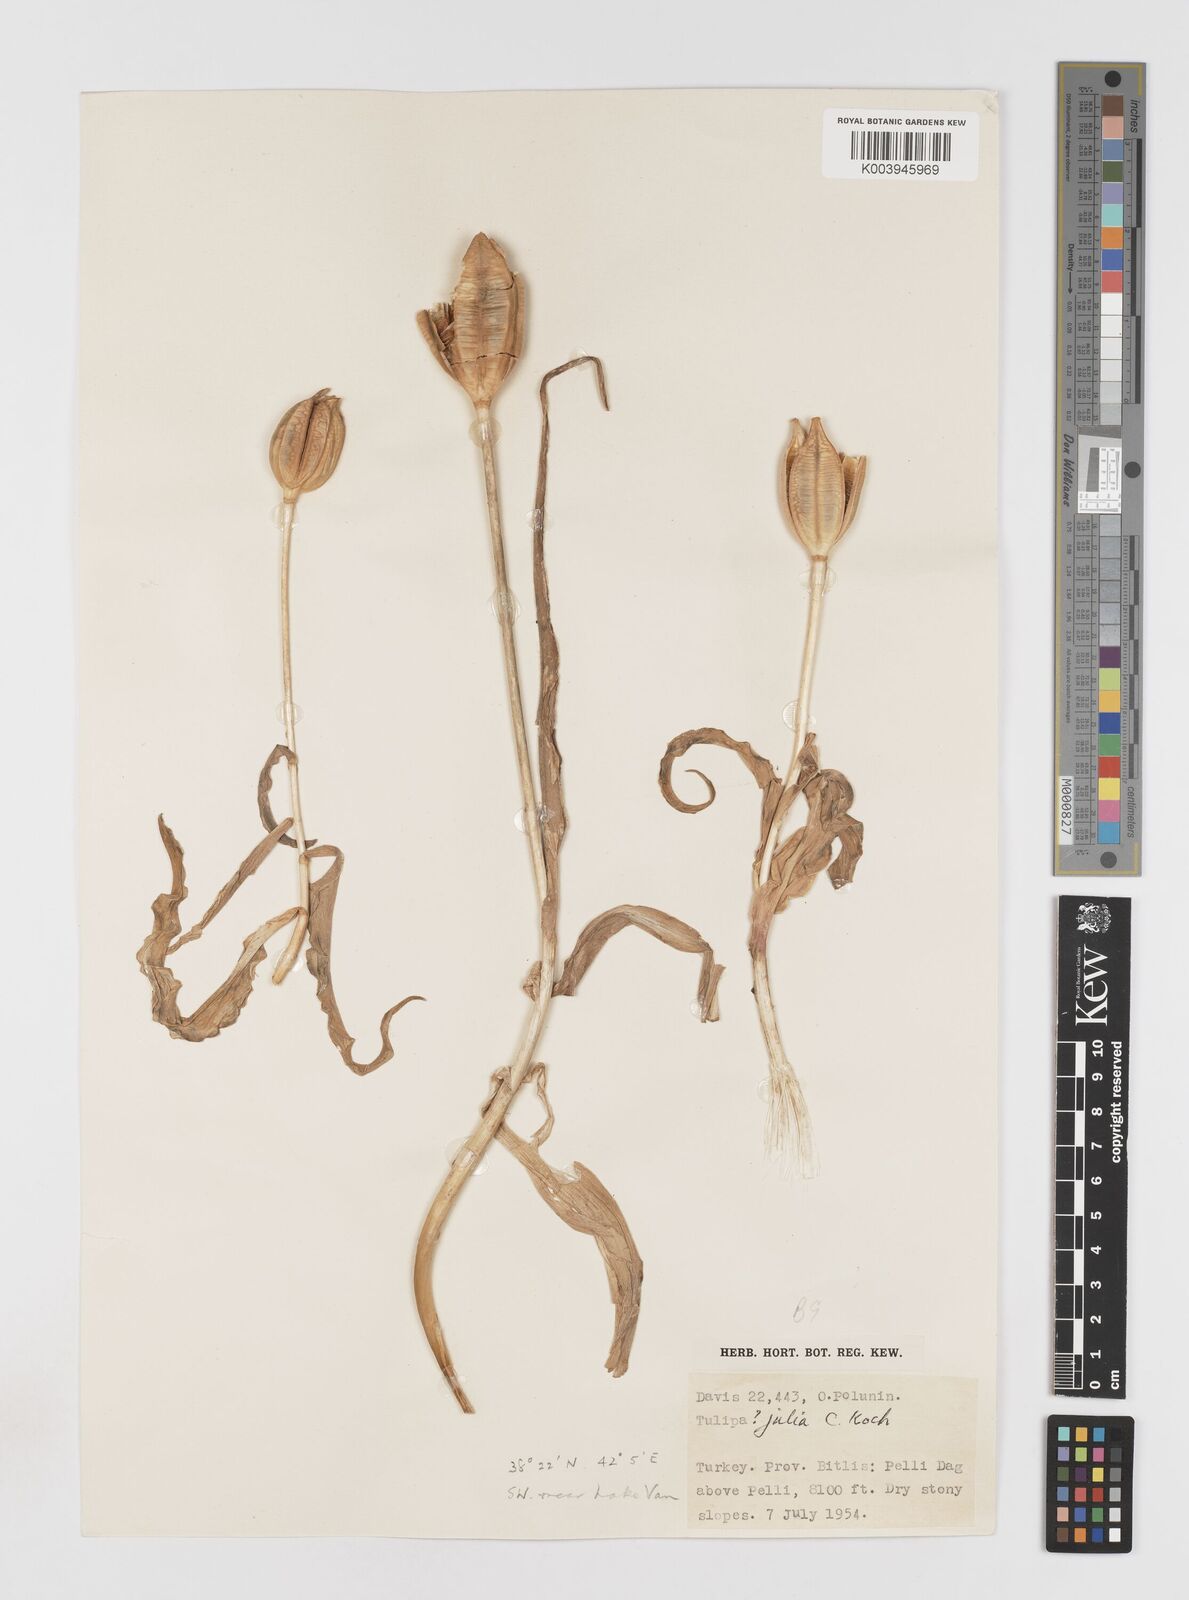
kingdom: Plantae
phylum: Tracheophyta
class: Liliopsida
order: Liliales
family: Liliaceae
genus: Tulipa
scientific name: Tulipa julia
